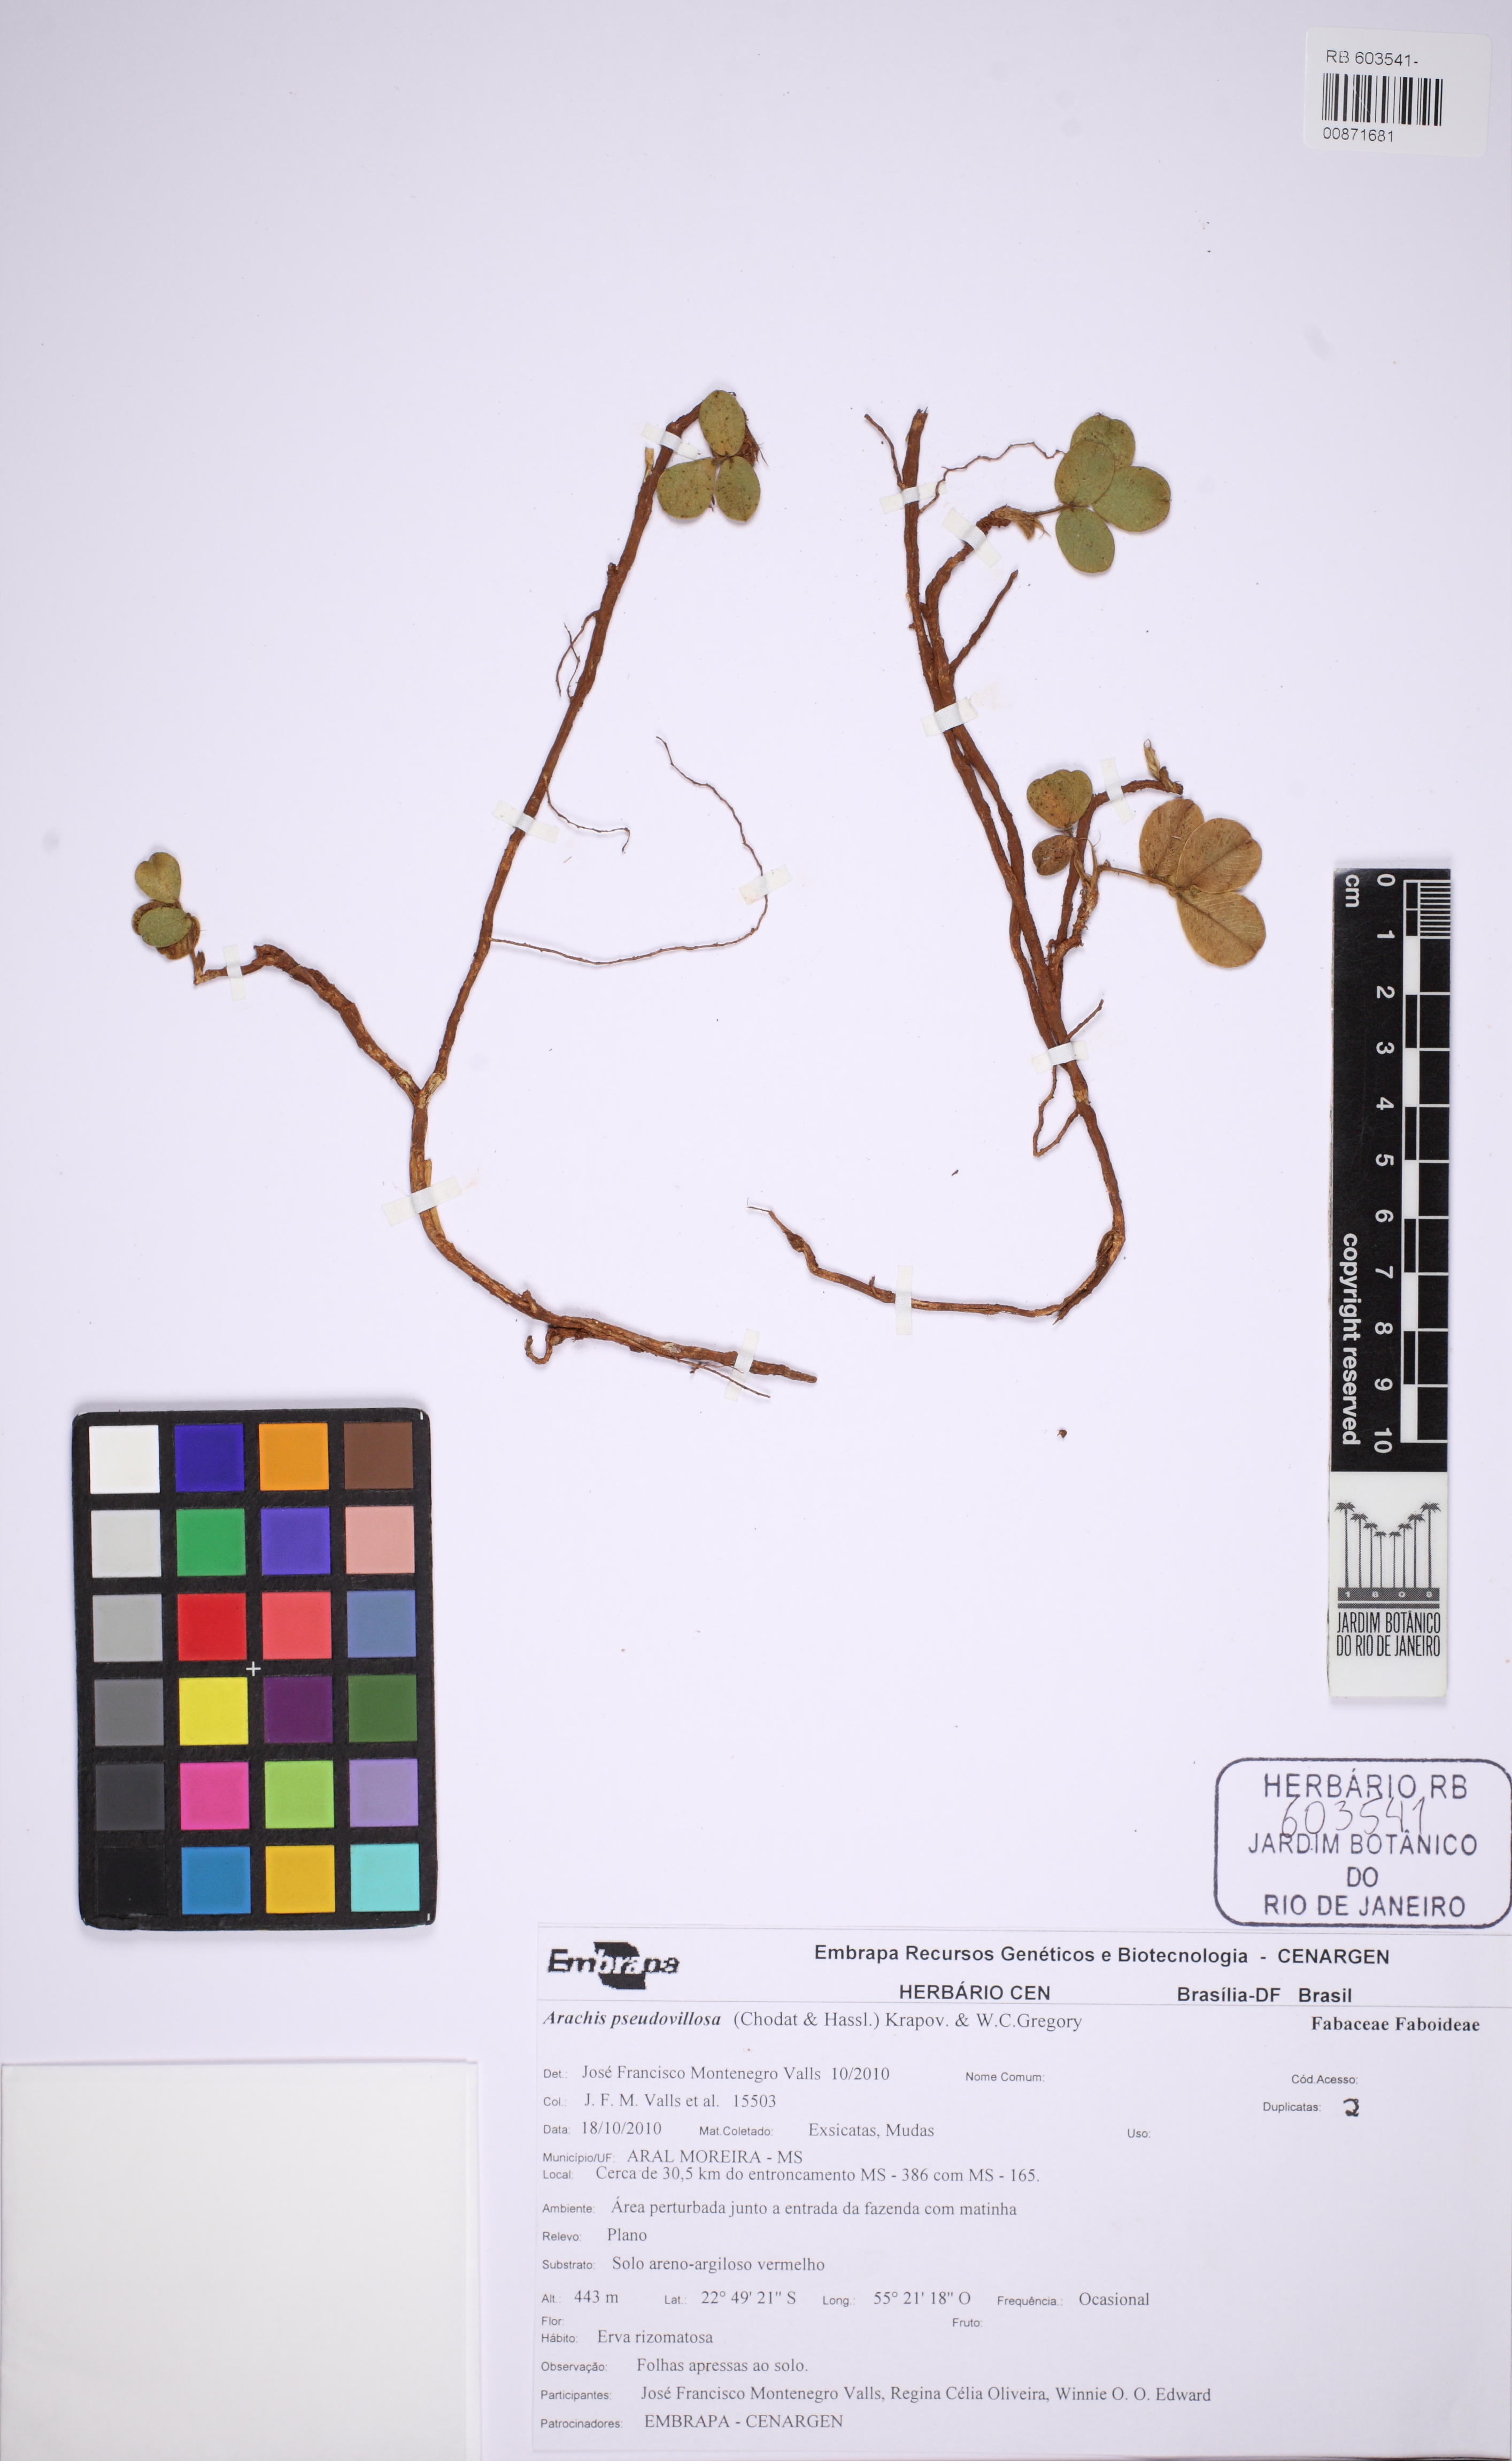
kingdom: Plantae
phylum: Tracheophyta
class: Magnoliopsida
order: Fabales
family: Fabaceae
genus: Arachis
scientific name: Arachis pseudovillosa
